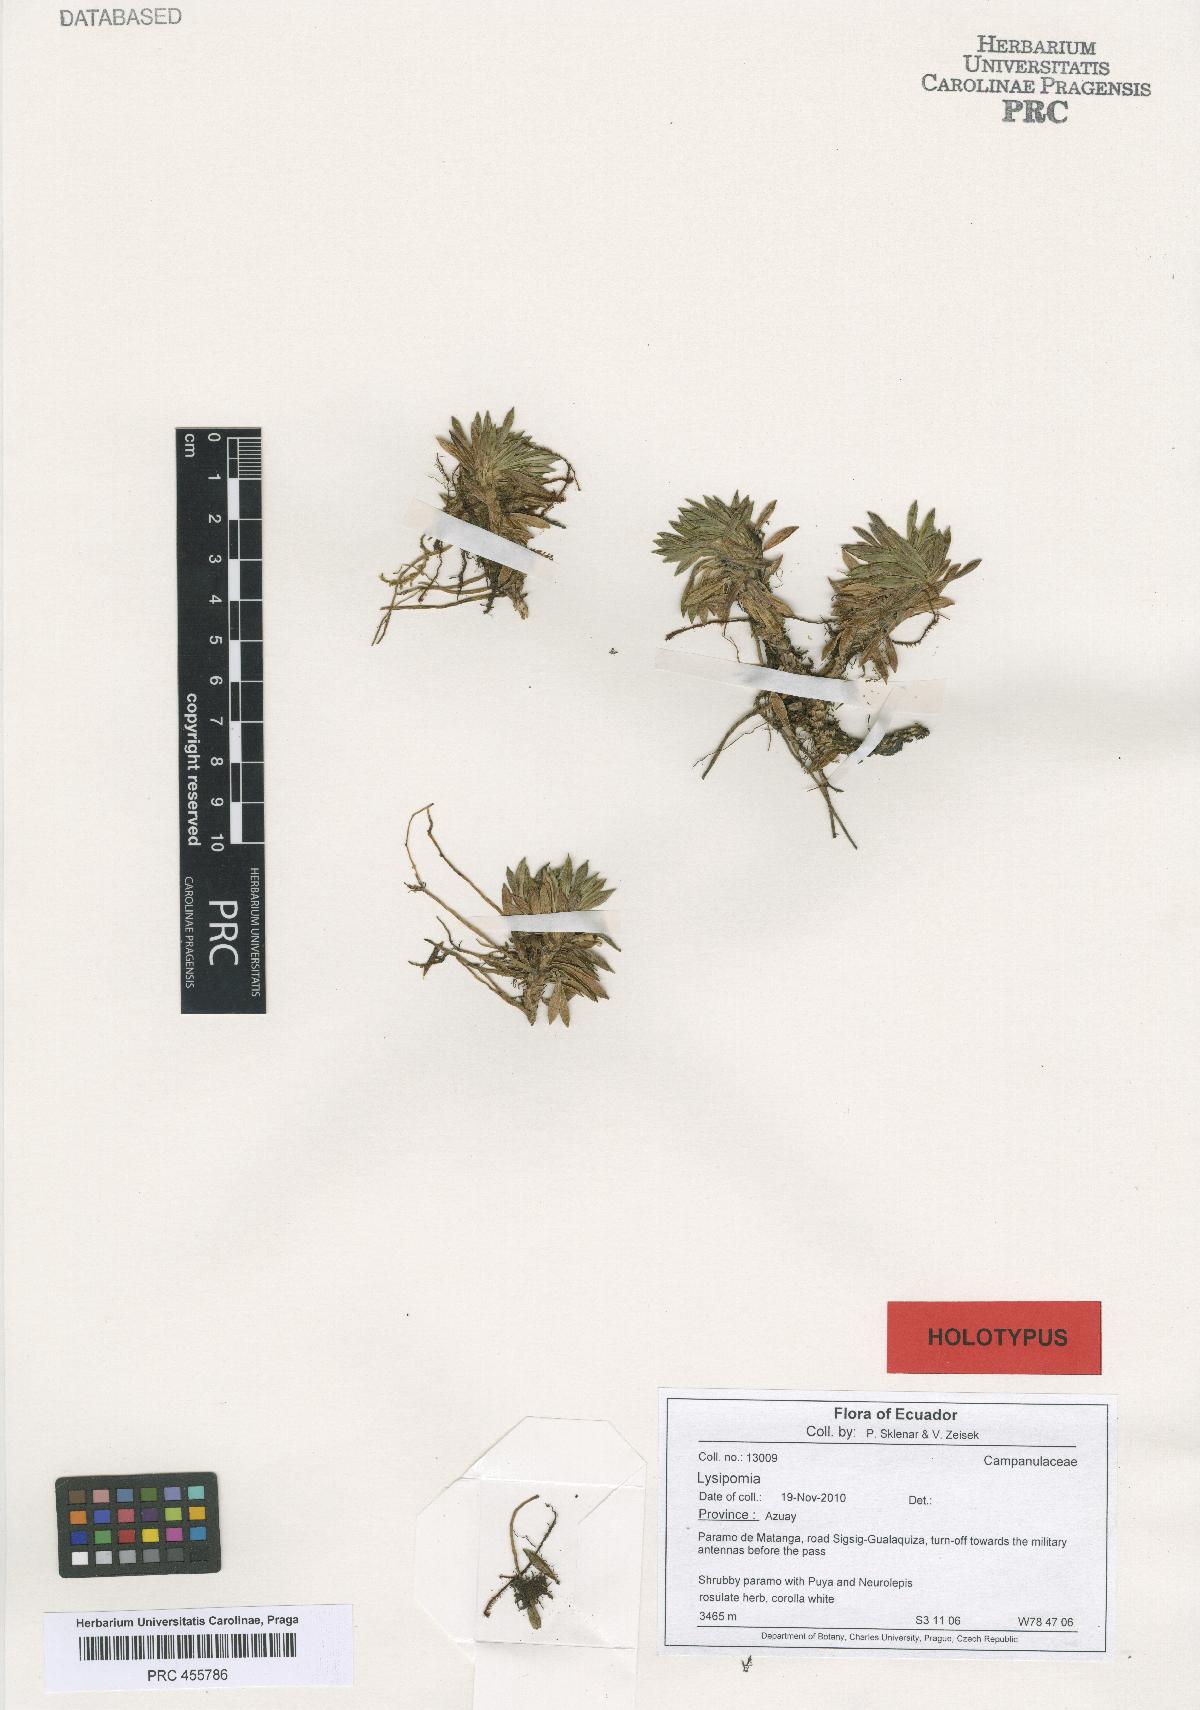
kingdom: Plantae
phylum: Tracheophyta
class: Magnoliopsida
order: Asterales
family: Campanulaceae
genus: Lysipomia
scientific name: Lysipomia petrosa
